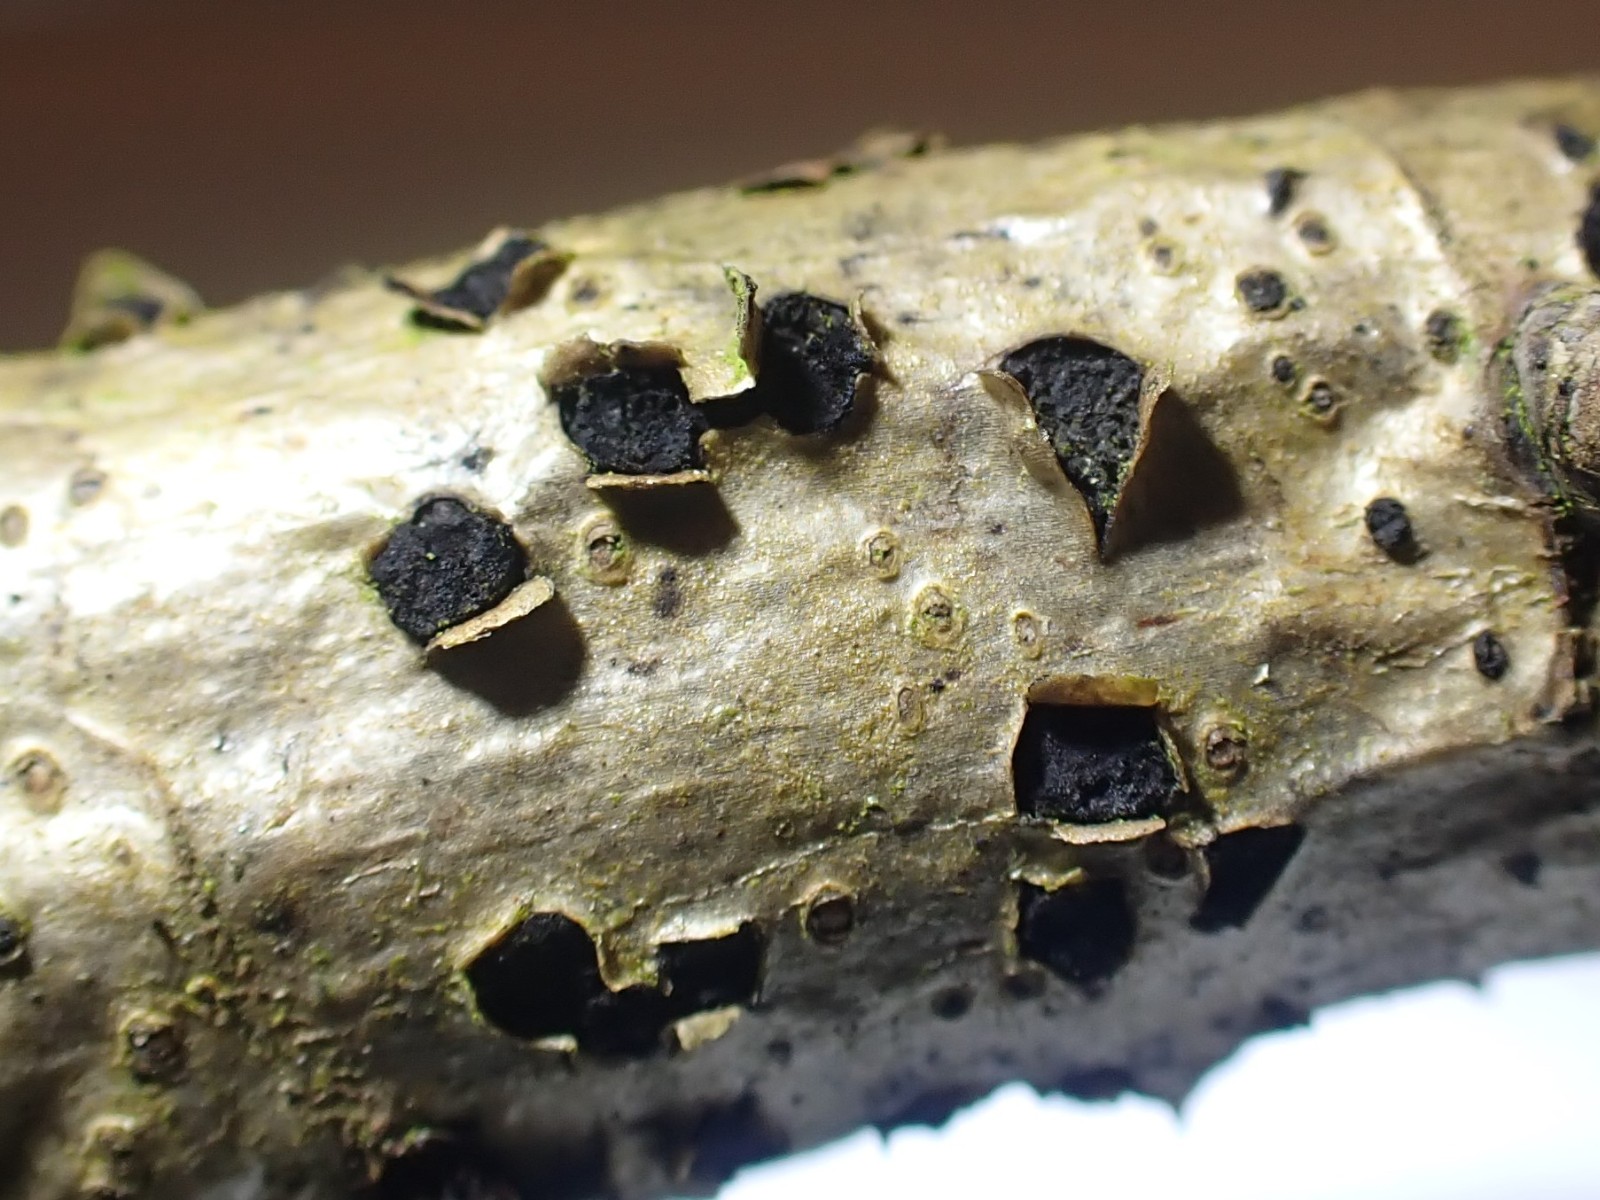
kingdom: Fungi
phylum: Ascomycota
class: Sordariomycetes
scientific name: Sordariomycetes
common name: kernesvampklassen
